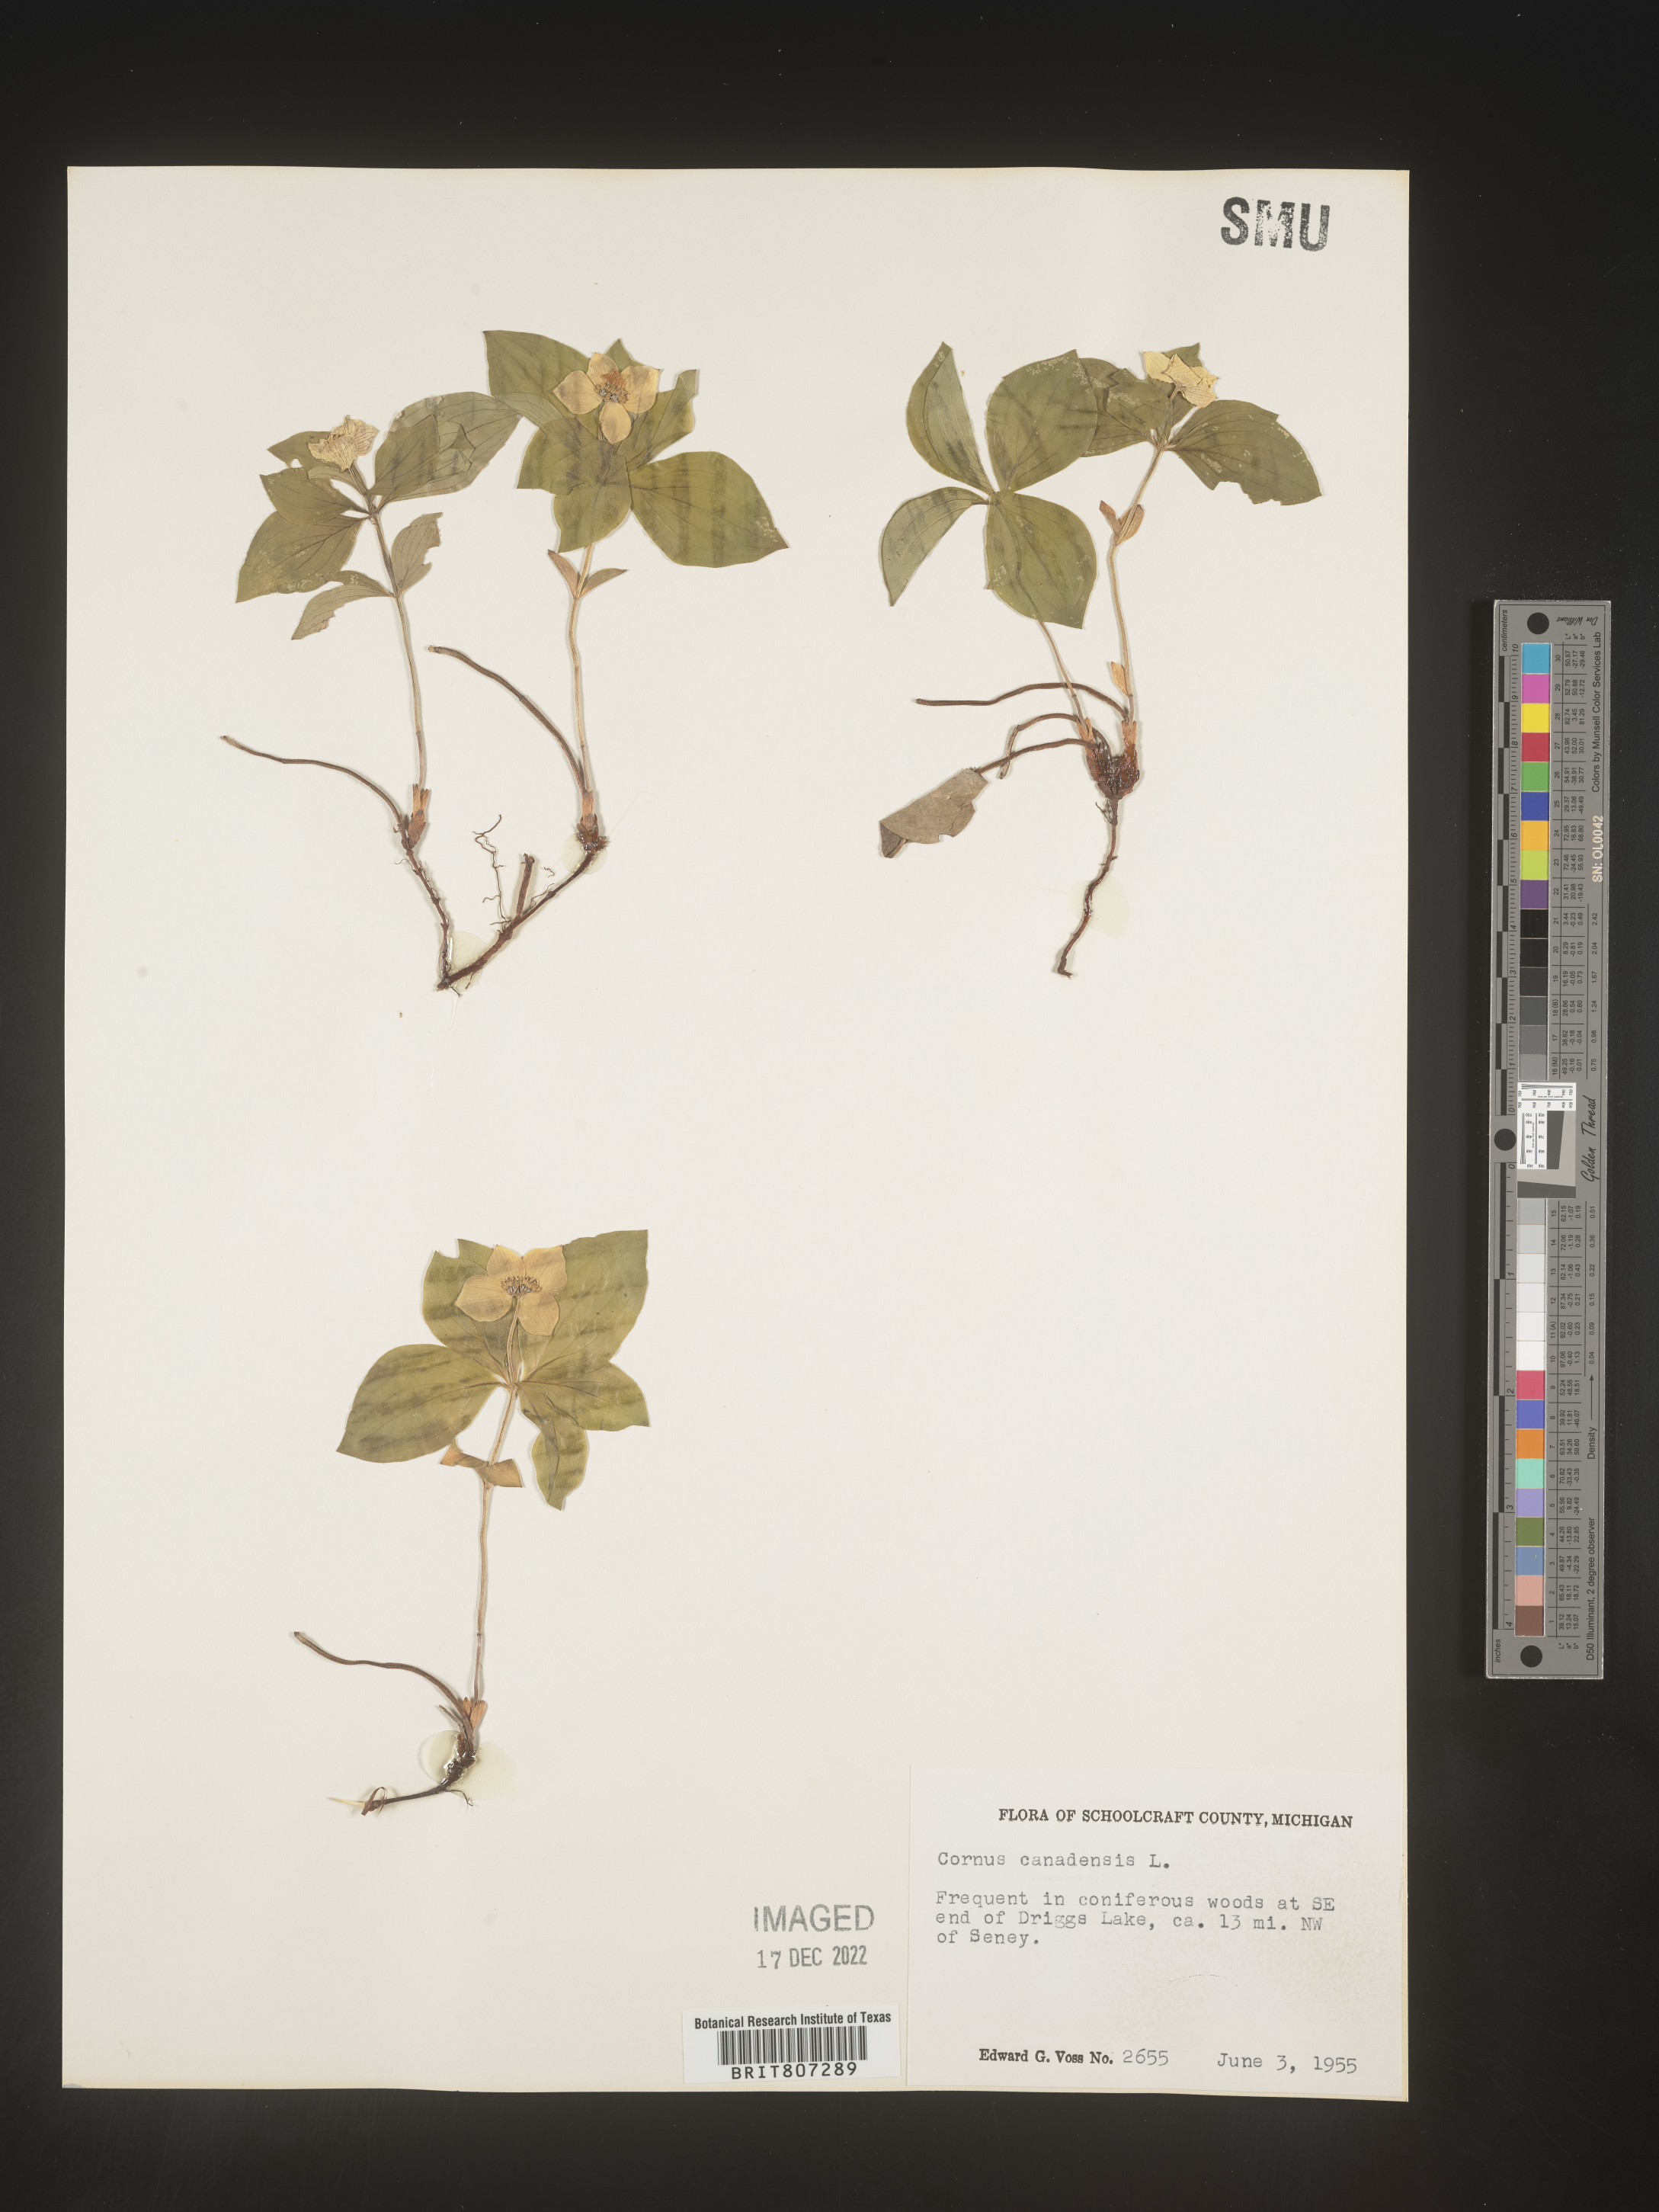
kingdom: Plantae
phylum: Tracheophyta
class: Magnoliopsida
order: Cornales
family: Cornaceae
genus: Cornus
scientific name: Cornus canadensis
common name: Creeping dogwood
